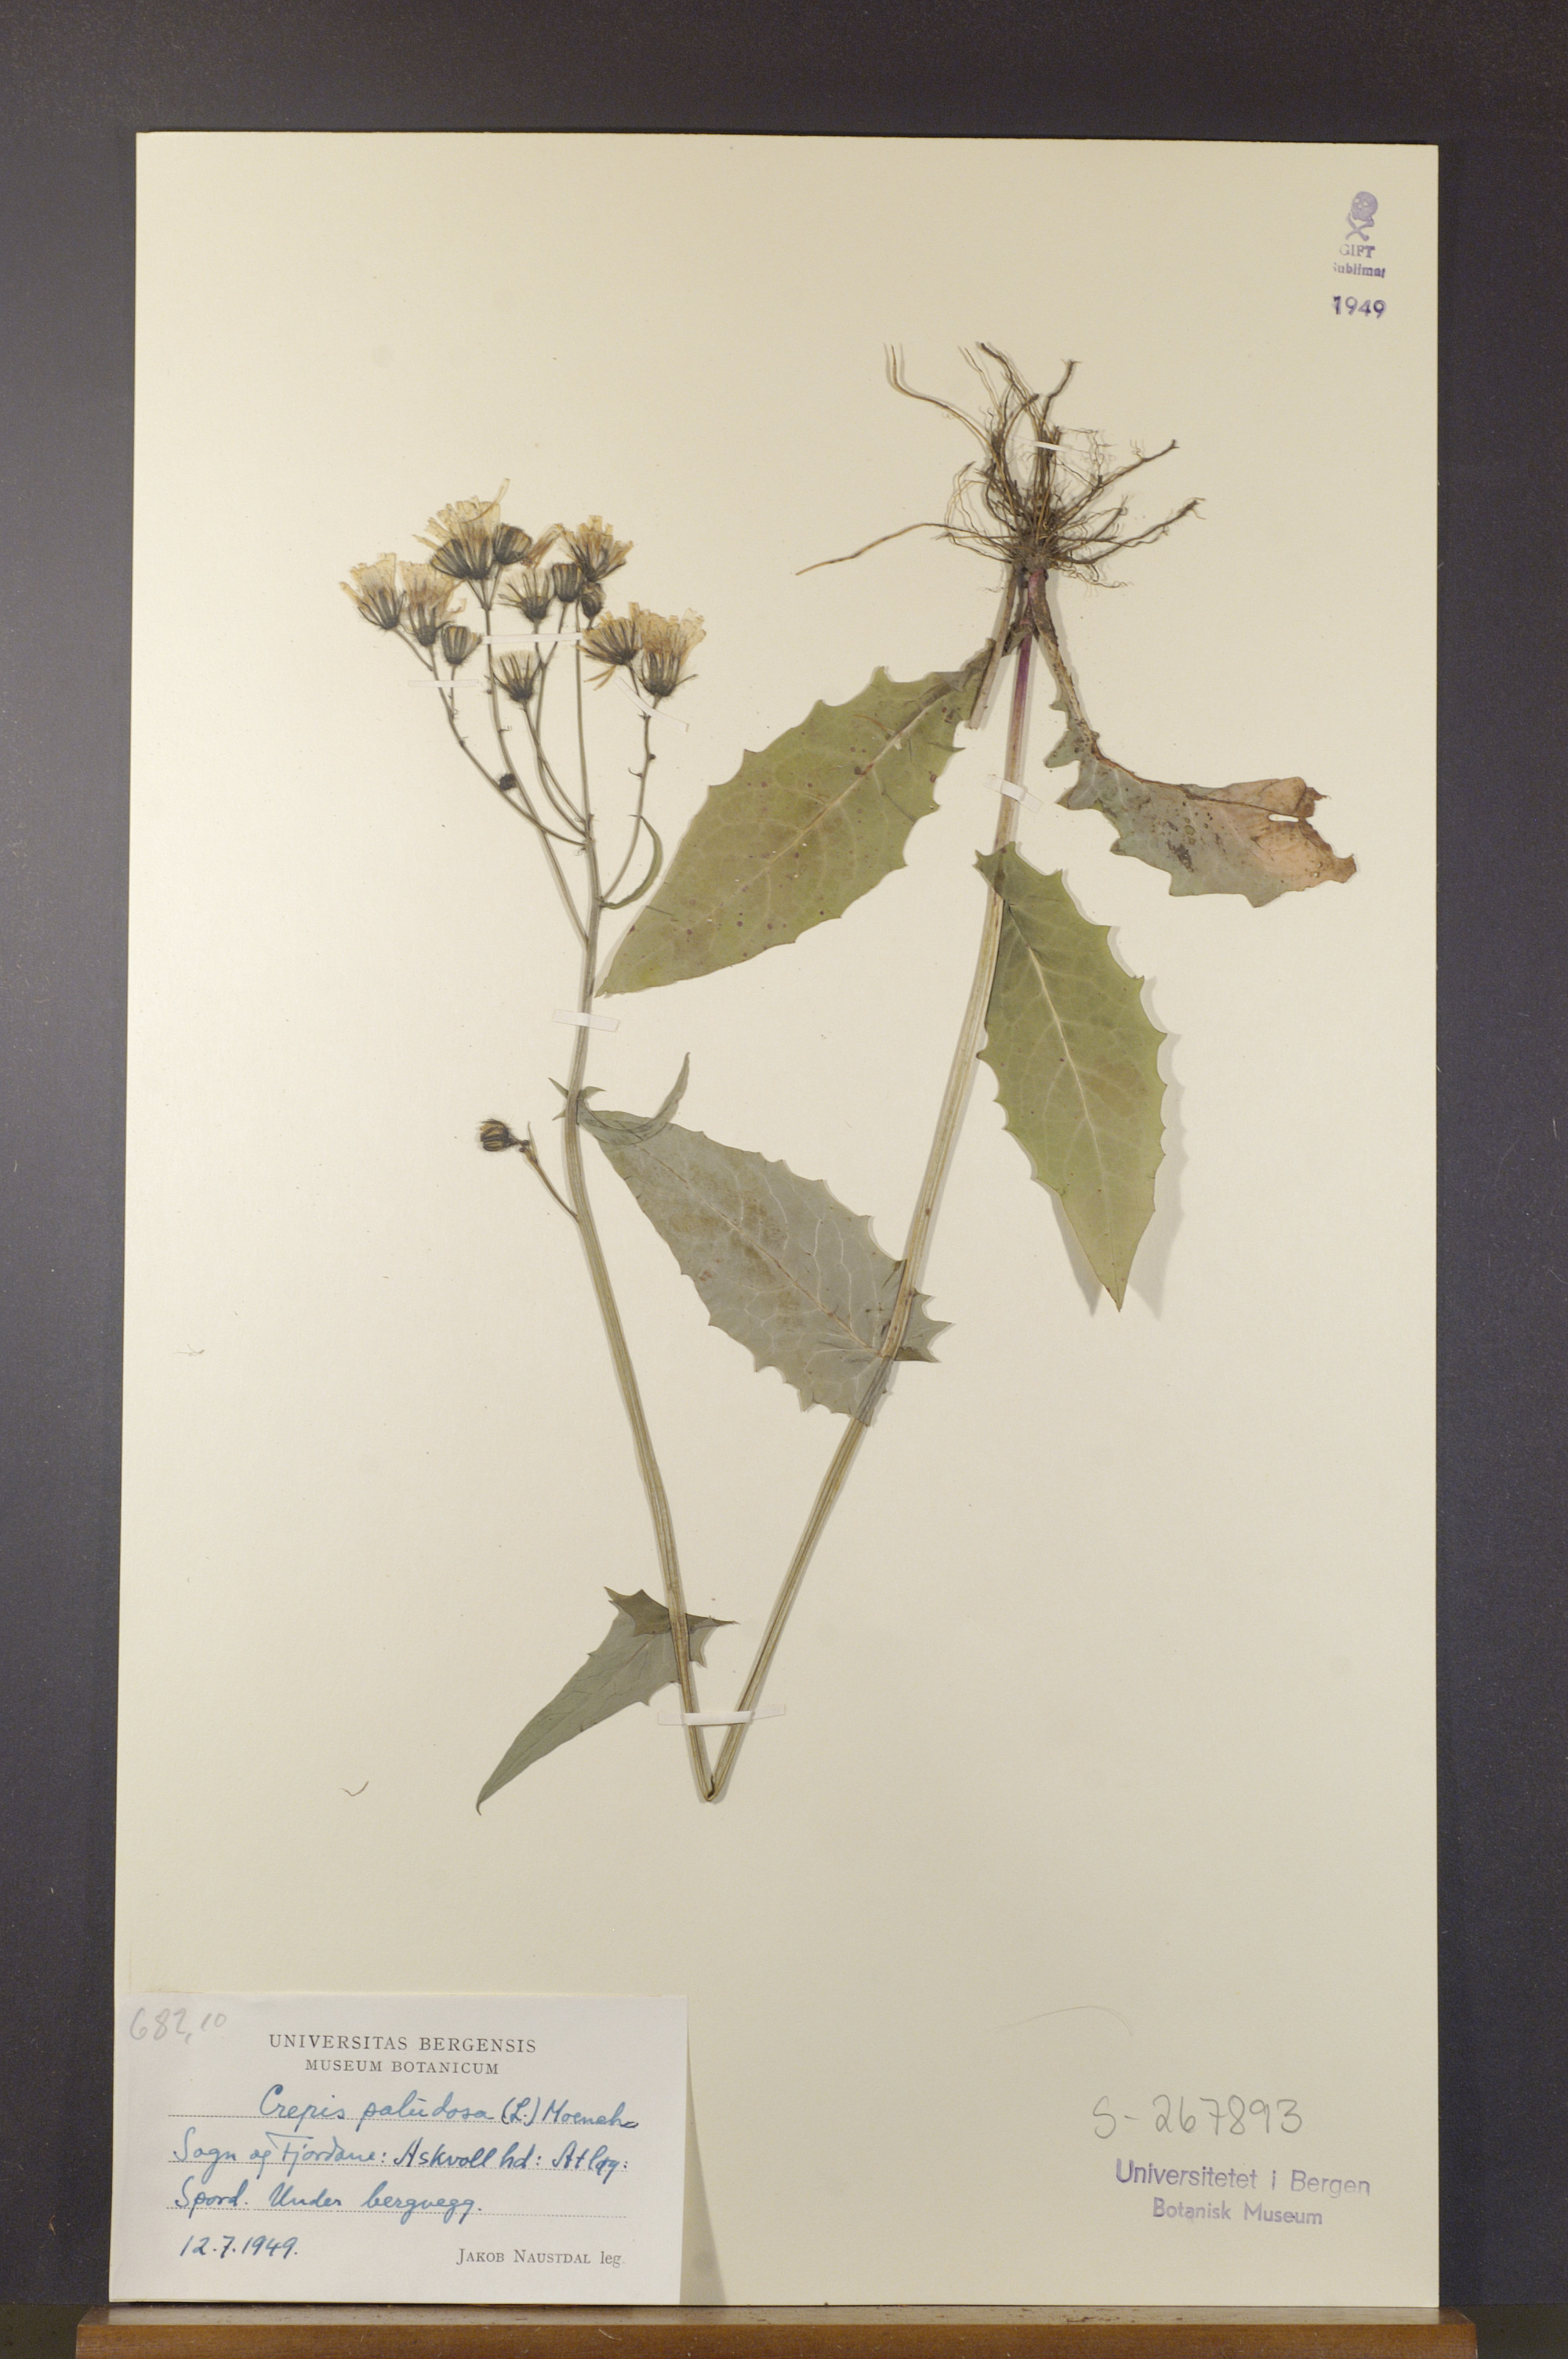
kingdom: Plantae
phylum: Tracheophyta
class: Magnoliopsida
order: Asterales
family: Asteraceae
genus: Crepis
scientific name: Crepis paludosa
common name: Marsh hawk's-beard
